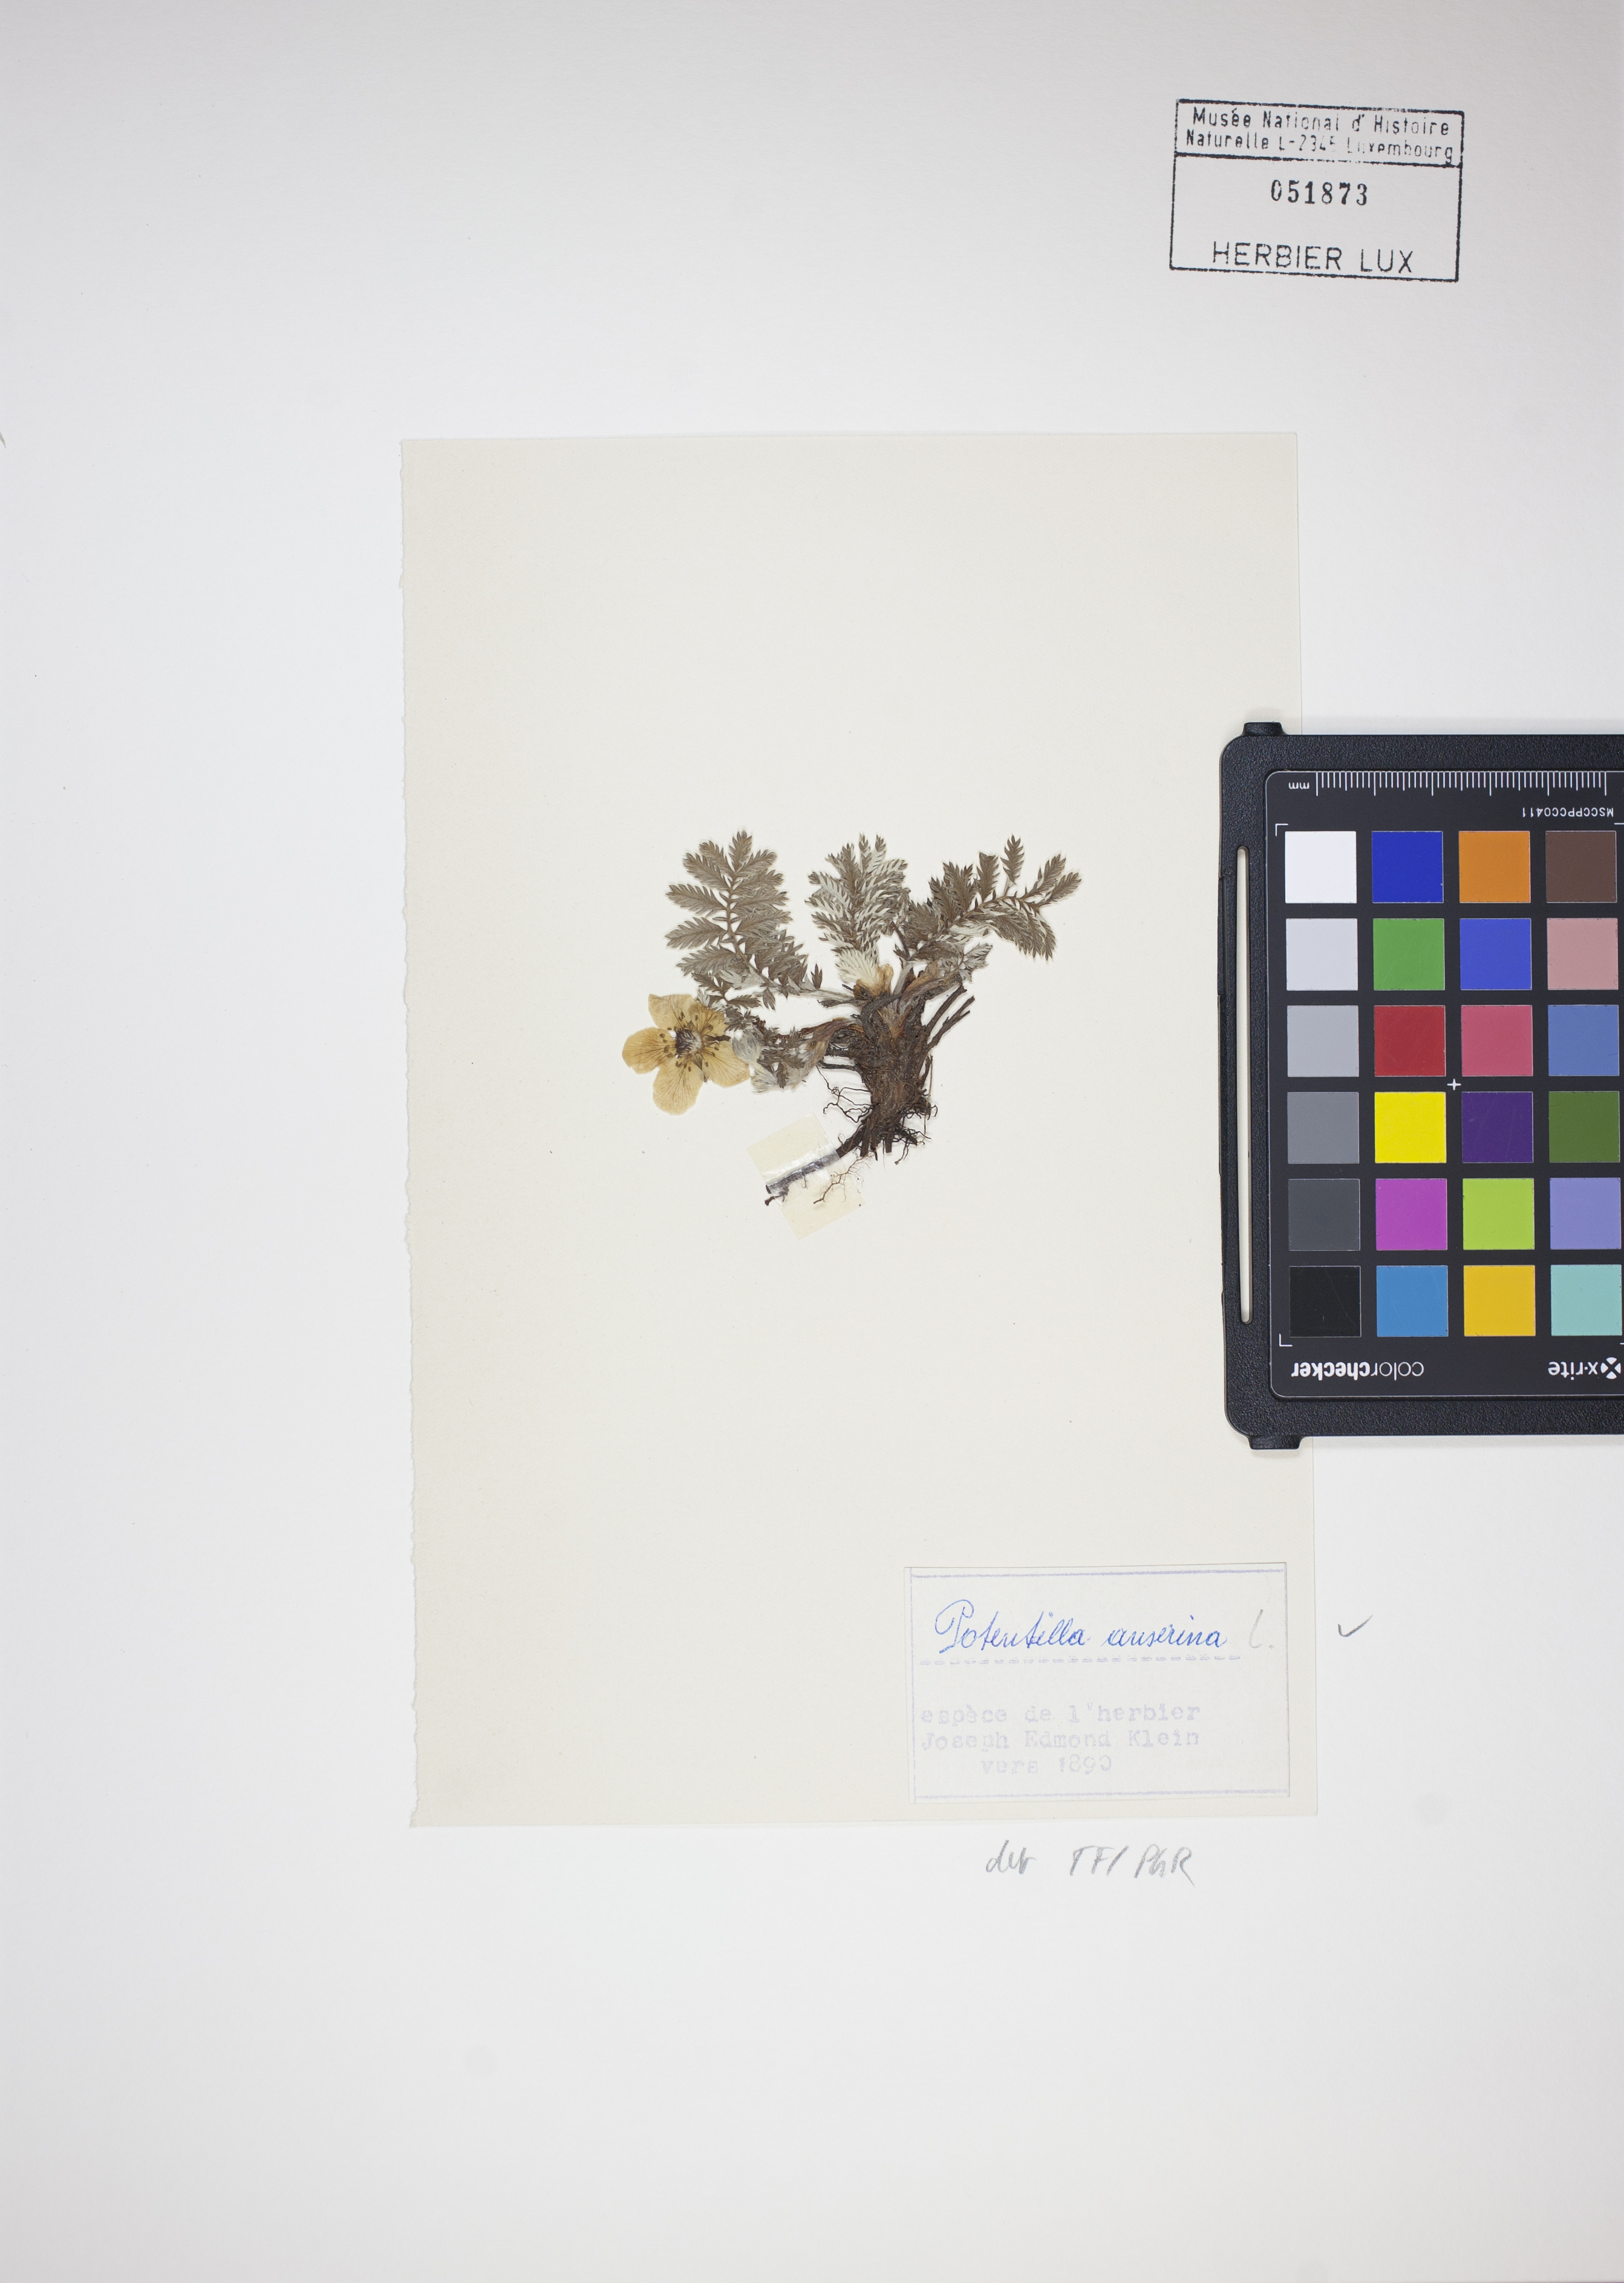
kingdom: Plantae
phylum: Tracheophyta
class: Magnoliopsida
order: Rosales
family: Rosaceae
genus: Argentina
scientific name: Argentina anserina
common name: Common silverweed
